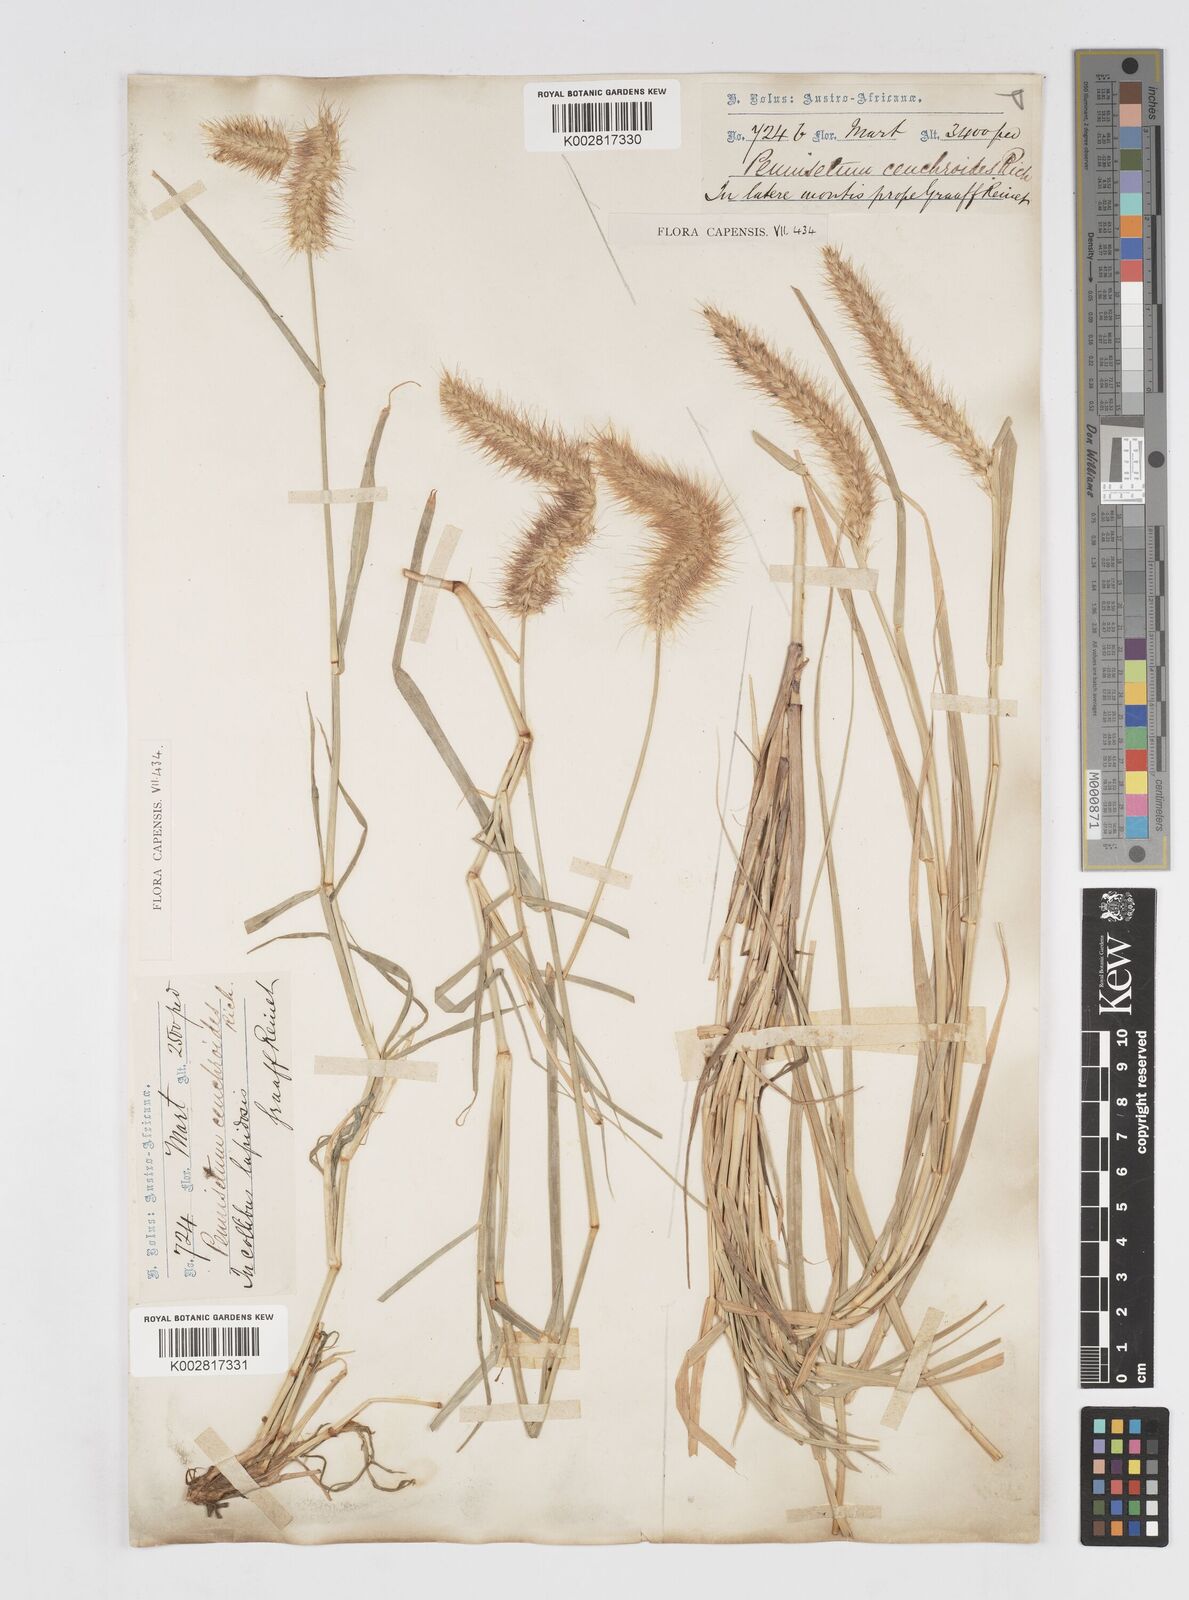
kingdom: Plantae
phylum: Tracheophyta
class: Liliopsida
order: Poales
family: Poaceae
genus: Cenchrus
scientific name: Cenchrus ciliaris
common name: Buffelgrass
